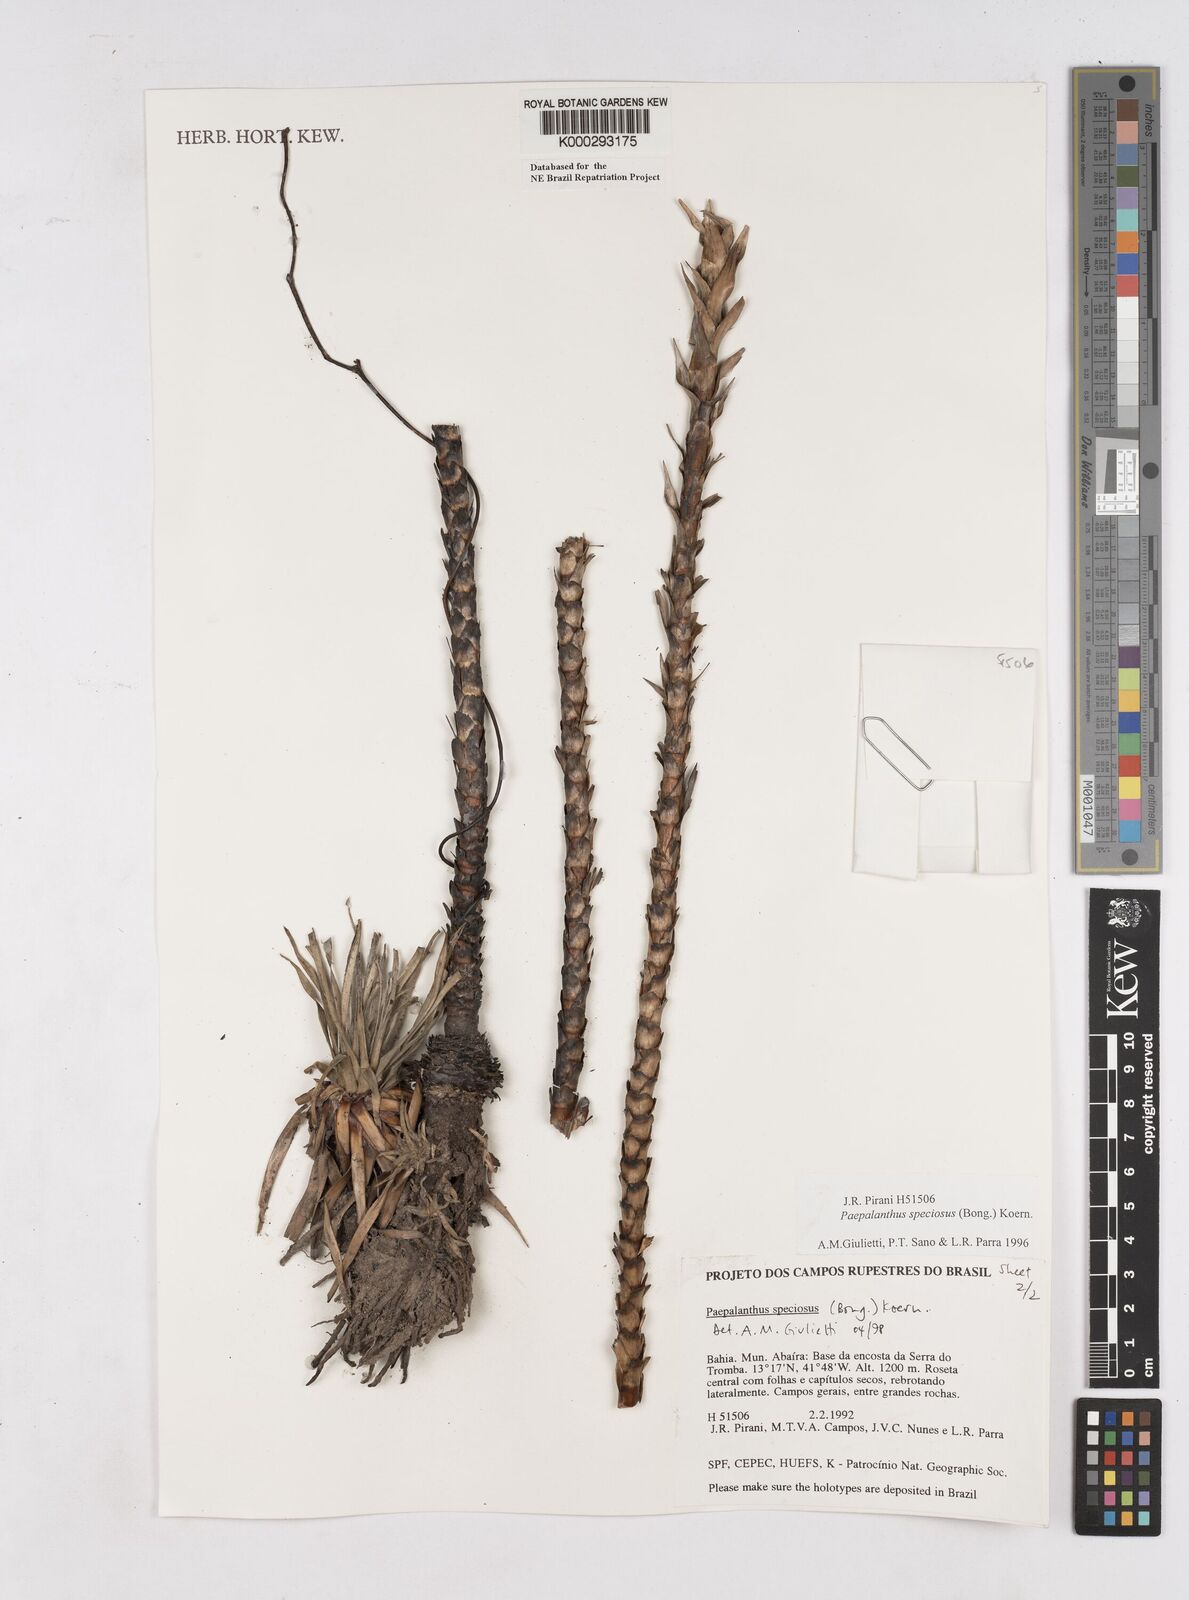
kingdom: Plantae
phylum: Tracheophyta
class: Liliopsida
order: Poales
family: Eriocaulaceae
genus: Paepalanthus
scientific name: Paepalanthus
